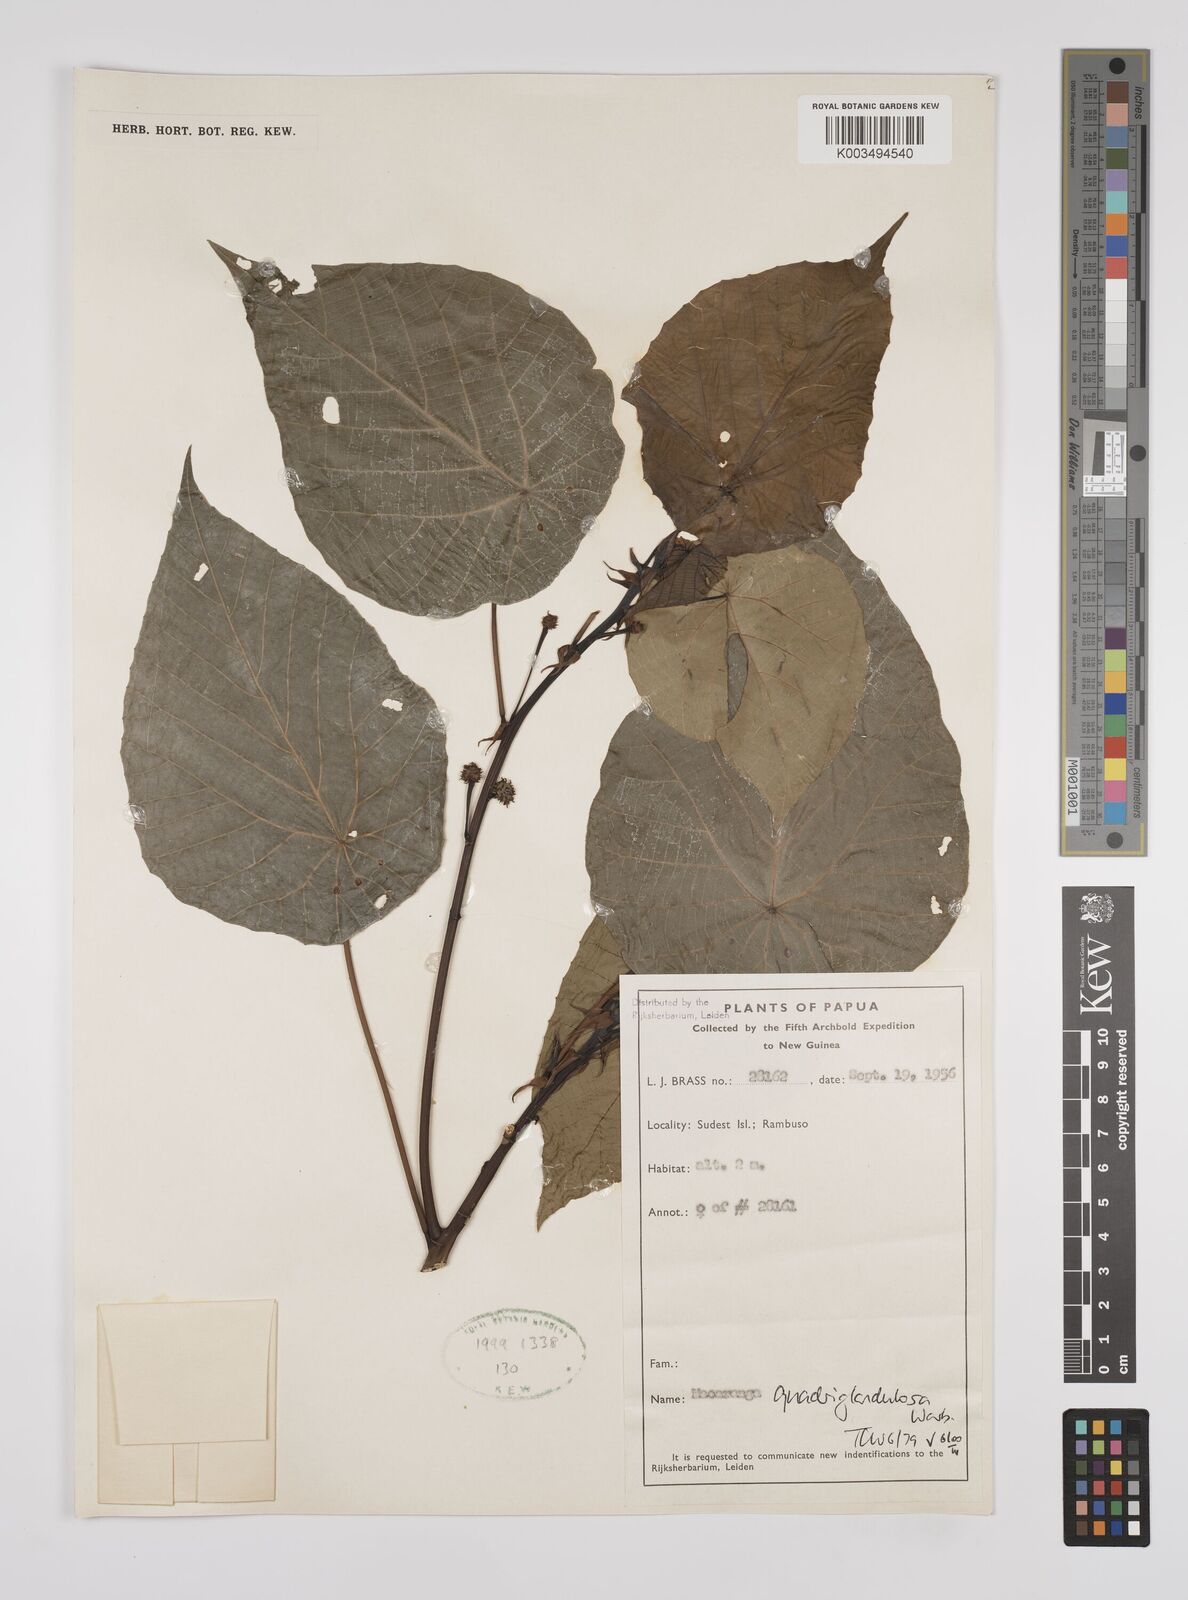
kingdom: Plantae
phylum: Tracheophyta
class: Magnoliopsida
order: Malpighiales
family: Euphorbiaceae
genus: Macaranga
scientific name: Macaranga quadriglandulosa
